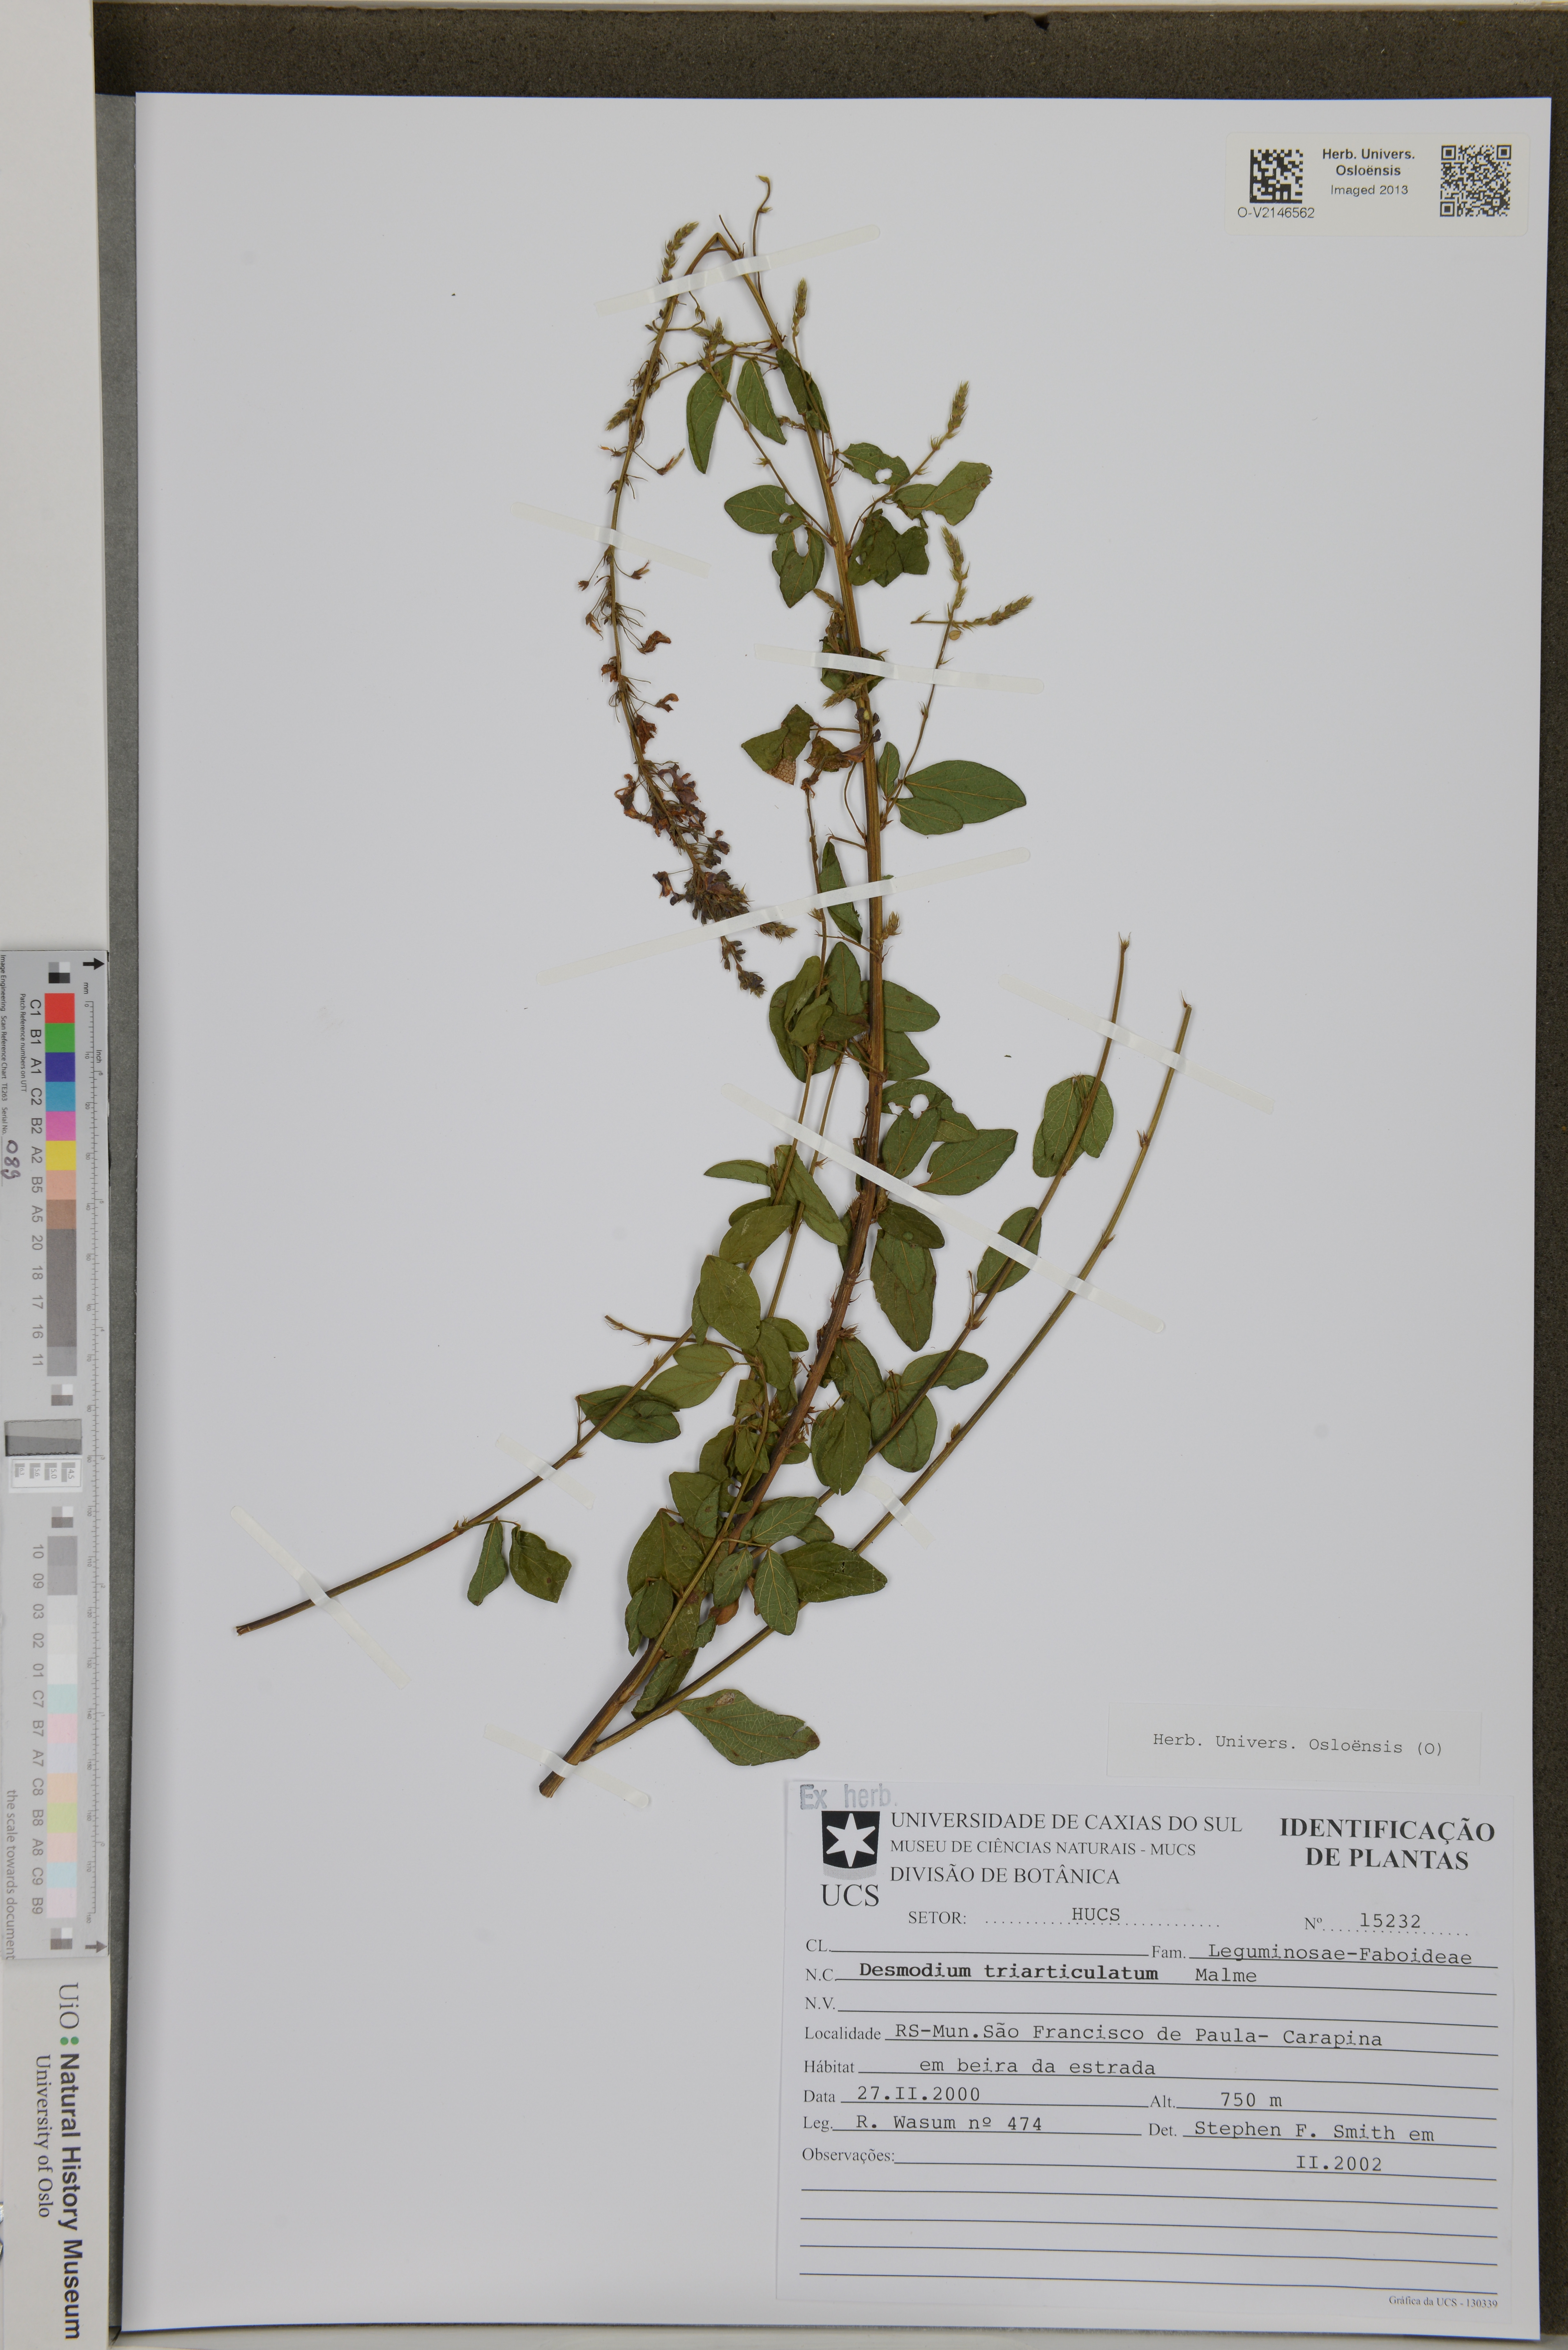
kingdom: Plantae
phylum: Tracheophyta
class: Magnoliopsida
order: Fabales
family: Fabaceae
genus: Desmodium
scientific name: Desmodium triarticulatum
